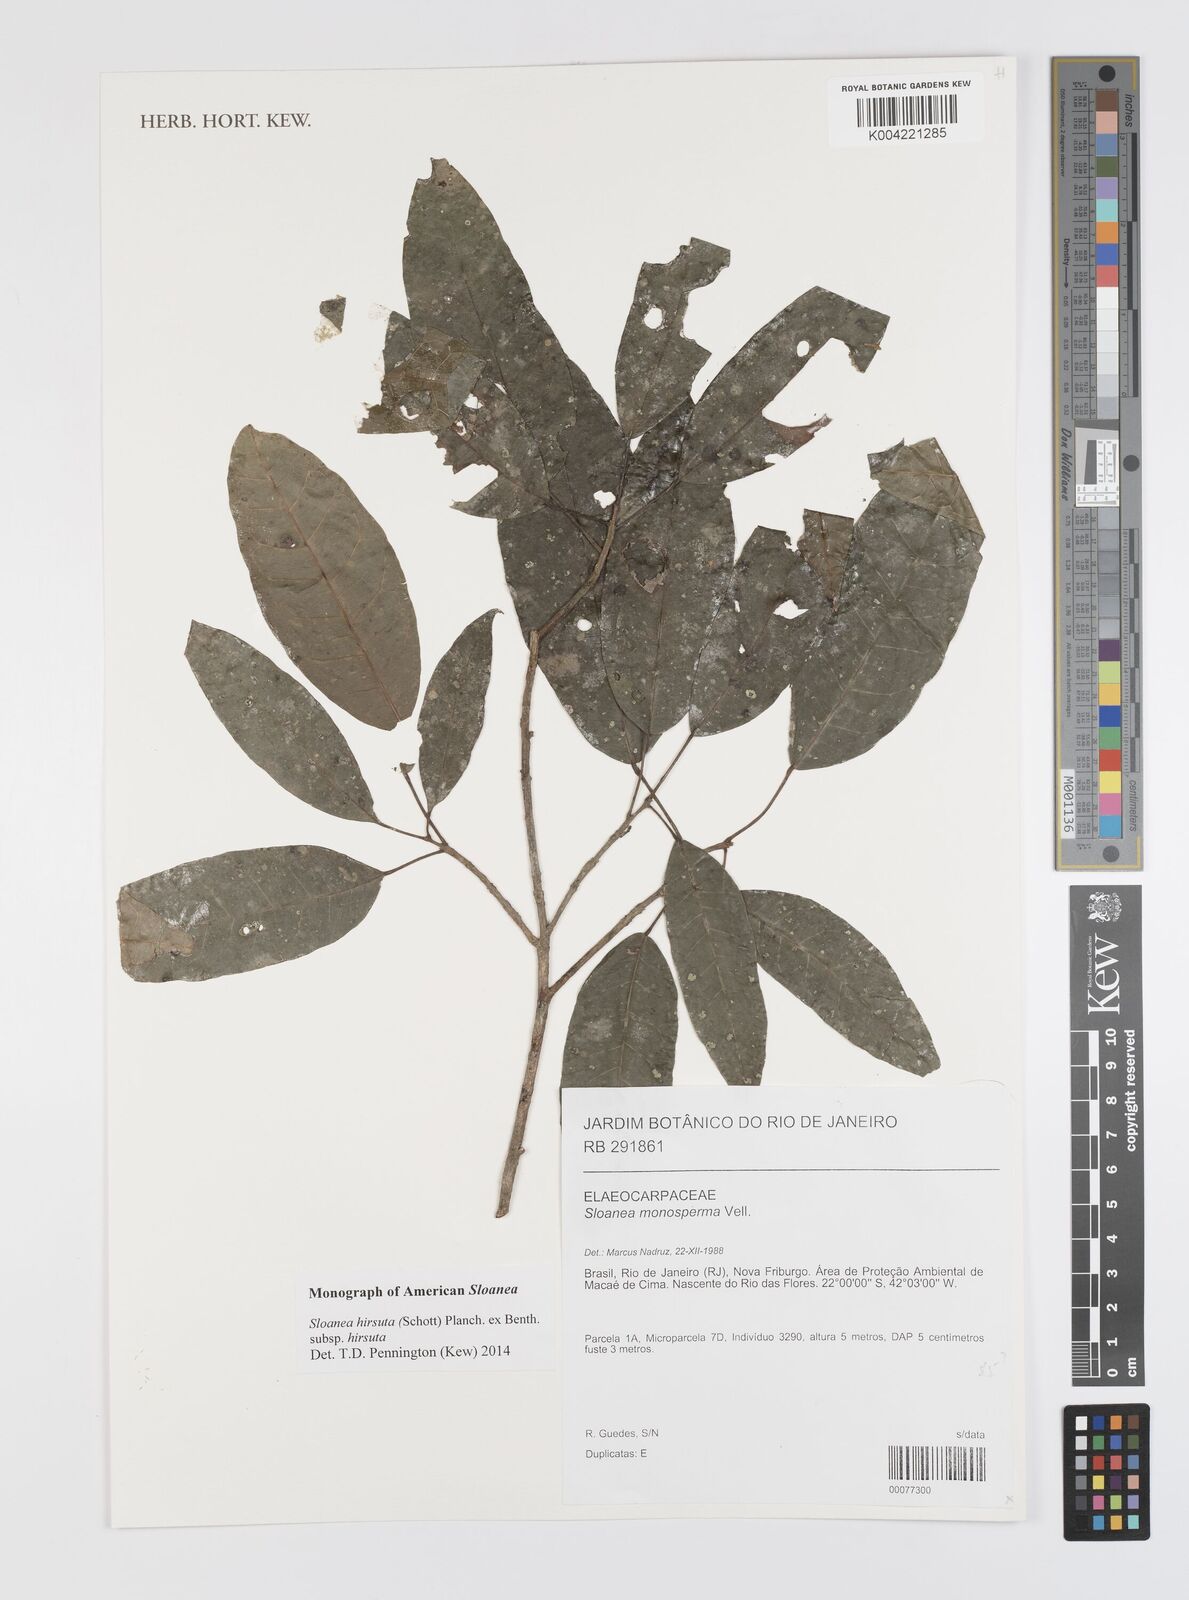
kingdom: Plantae
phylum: Tracheophyta
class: Magnoliopsida
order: Oxalidales
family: Elaeocarpaceae
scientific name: Elaeocarpaceae
